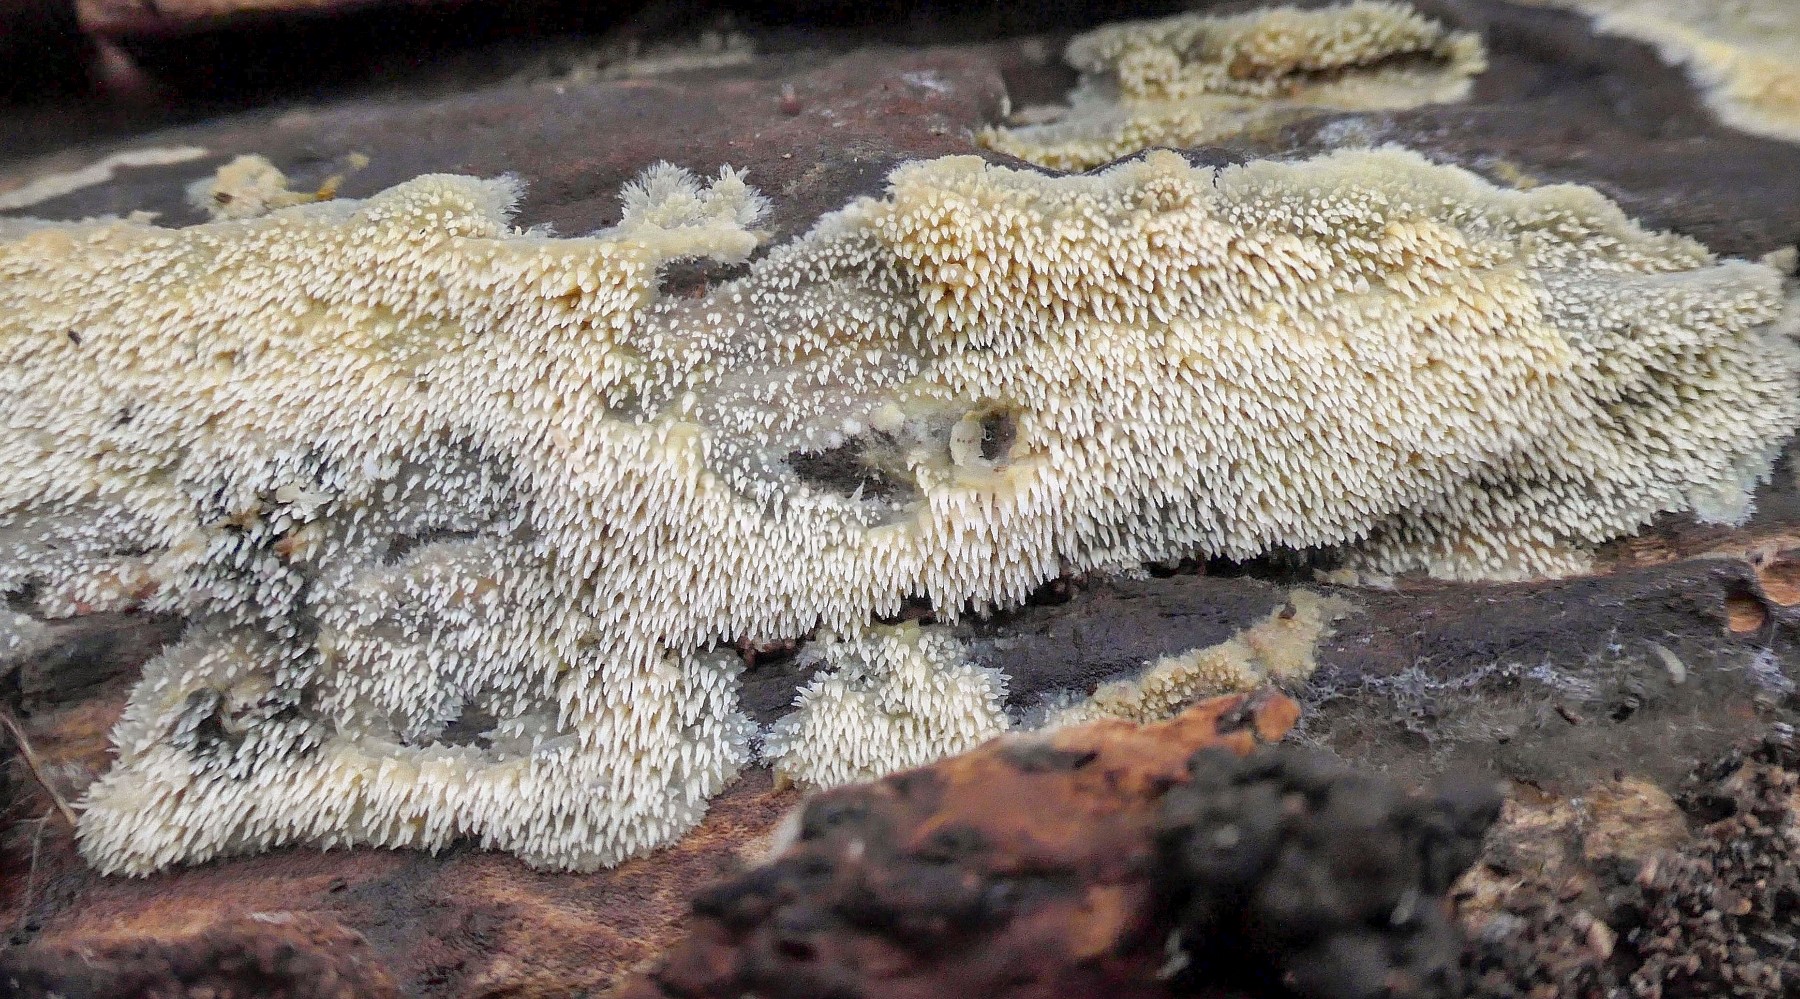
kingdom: Fungi
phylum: Basidiomycota
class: Agaricomycetes
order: Polyporales
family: Meruliaceae
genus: Mycoacia
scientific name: Mycoacia uda
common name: citrongul vokspig
